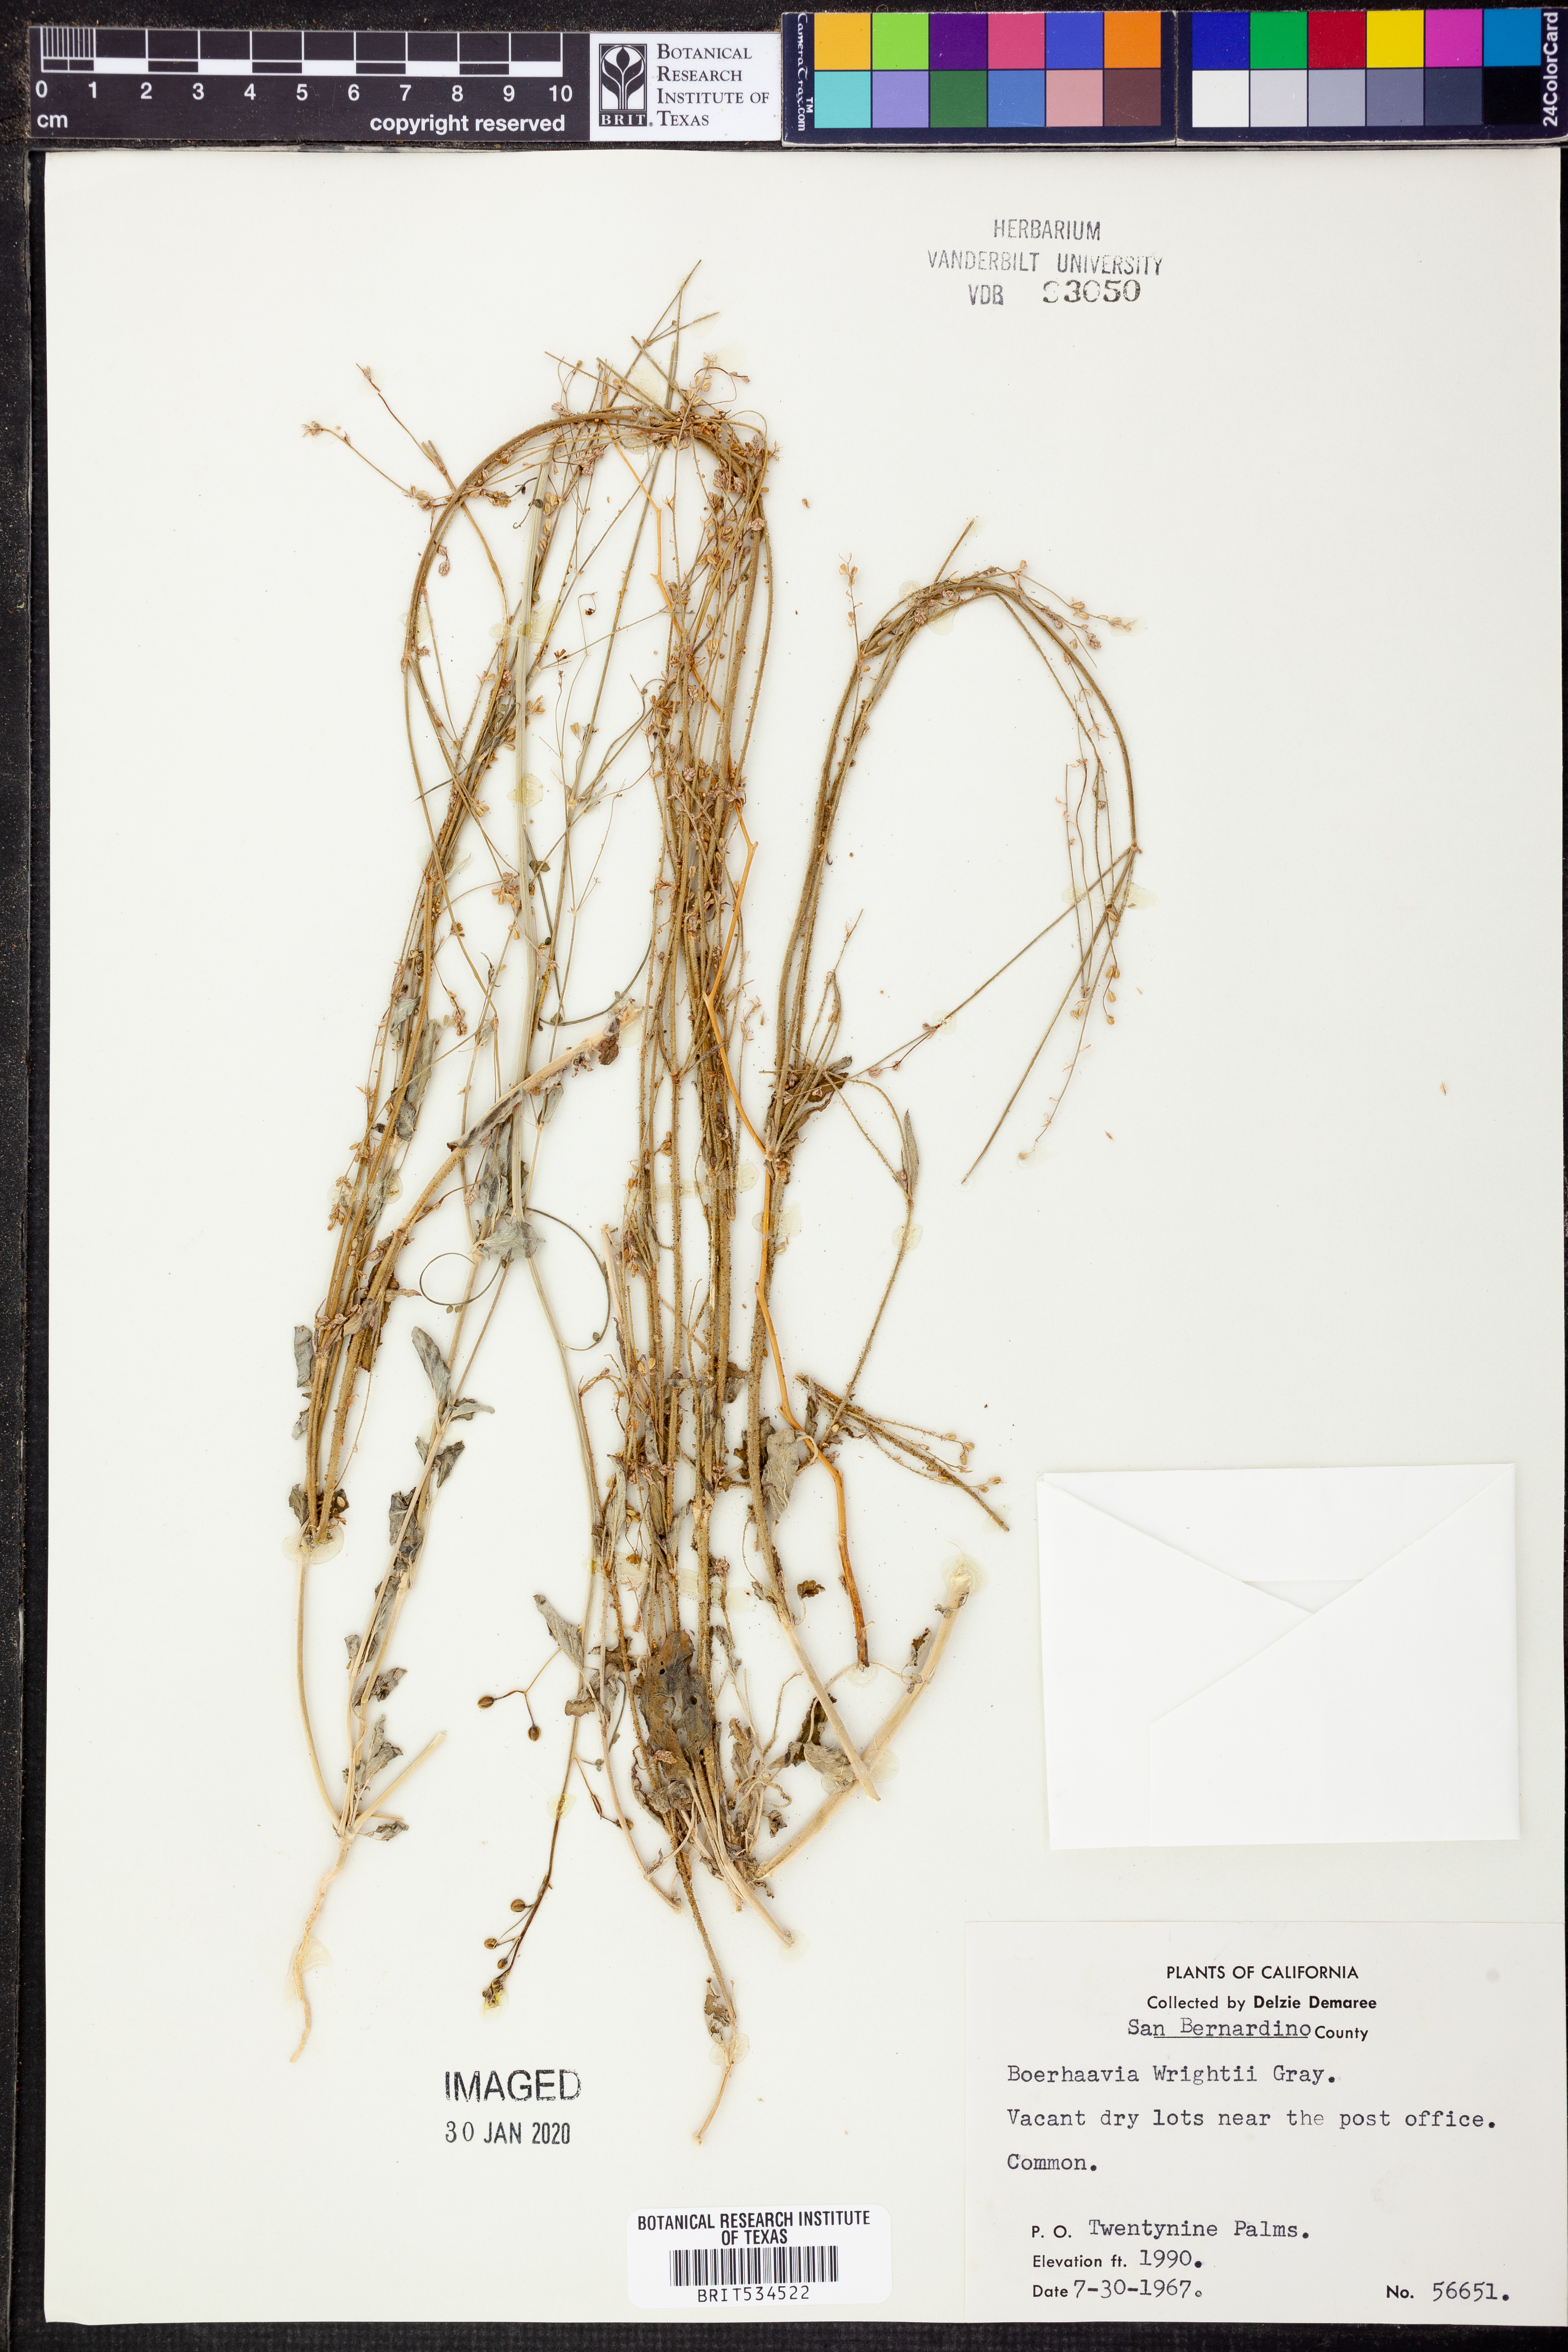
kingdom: Plantae
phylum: Tracheophyta
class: Magnoliopsida
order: Caryophyllales
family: Nyctaginaceae
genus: Boerhavia
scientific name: Boerhavia wrightii
